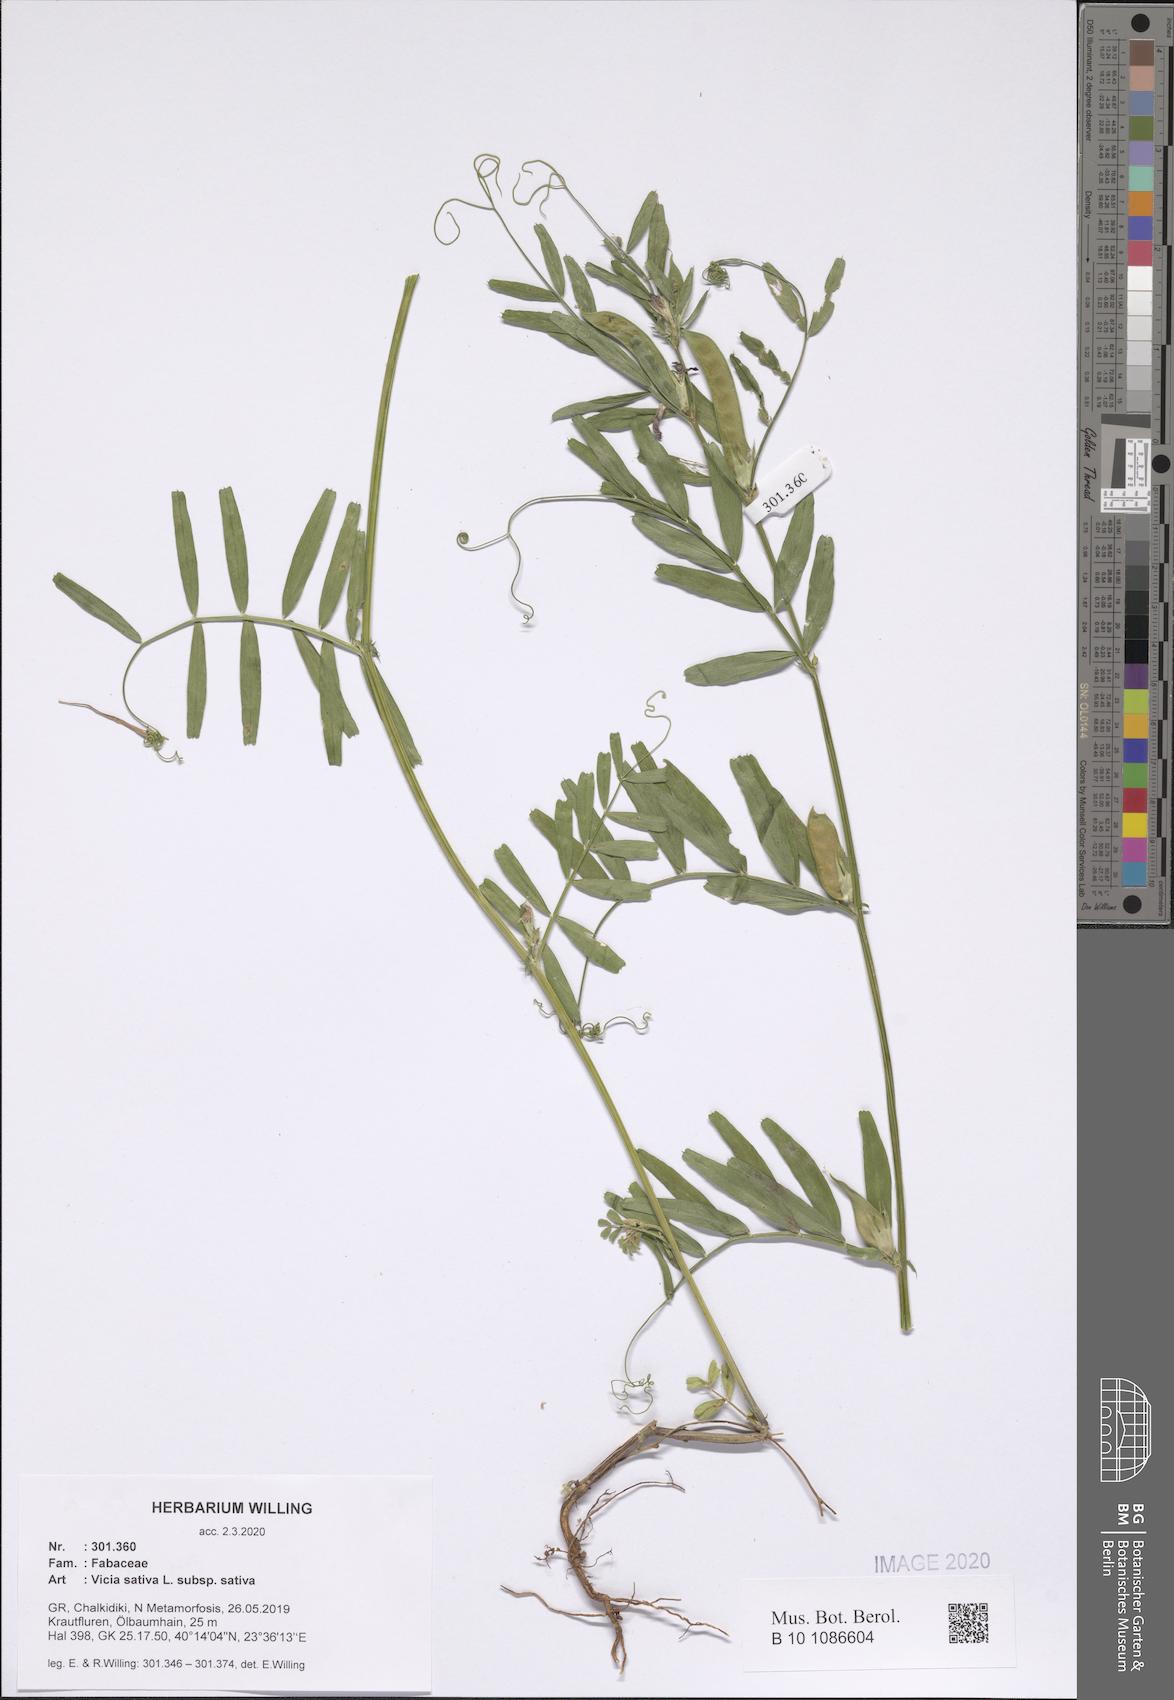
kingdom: Plantae
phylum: Tracheophyta
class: Magnoliopsida
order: Fabales
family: Fabaceae
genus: Vicia
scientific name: Vicia sativa
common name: Garden vetch
